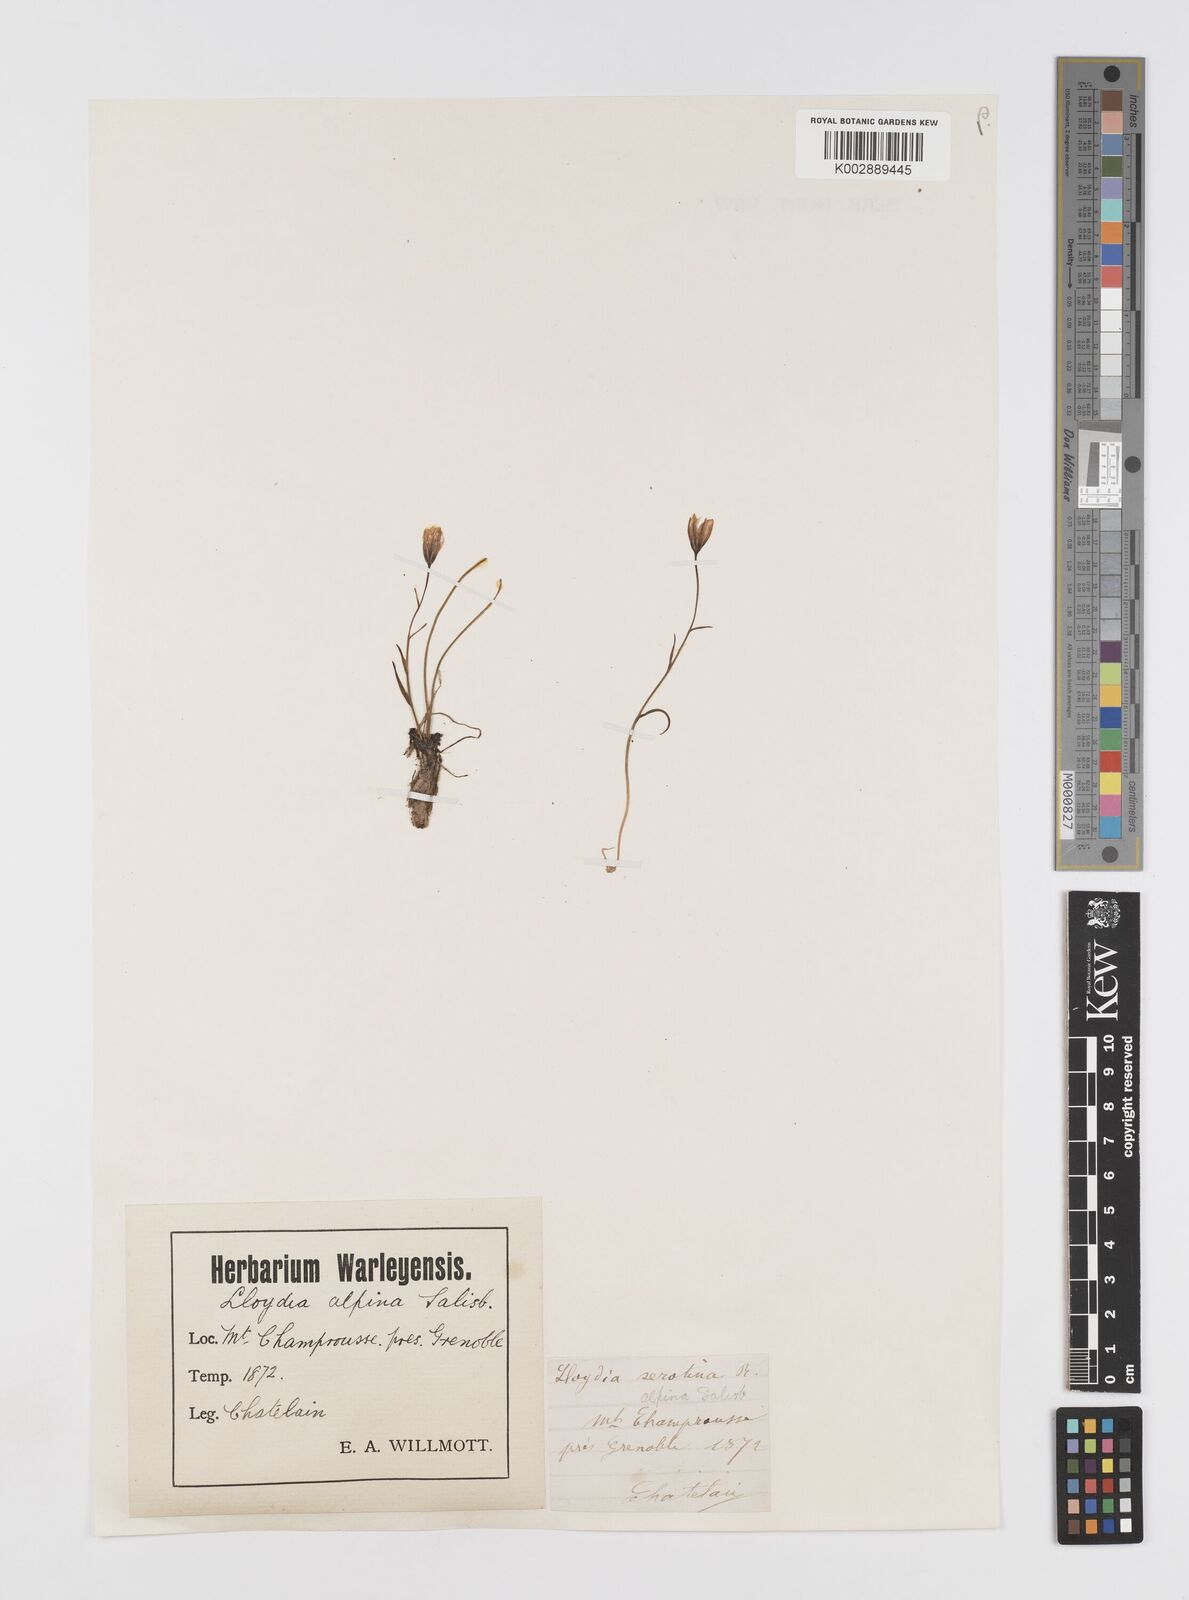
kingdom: Plantae
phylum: Tracheophyta
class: Liliopsida
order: Liliales
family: Liliaceae
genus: Gagea
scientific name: Gagea
